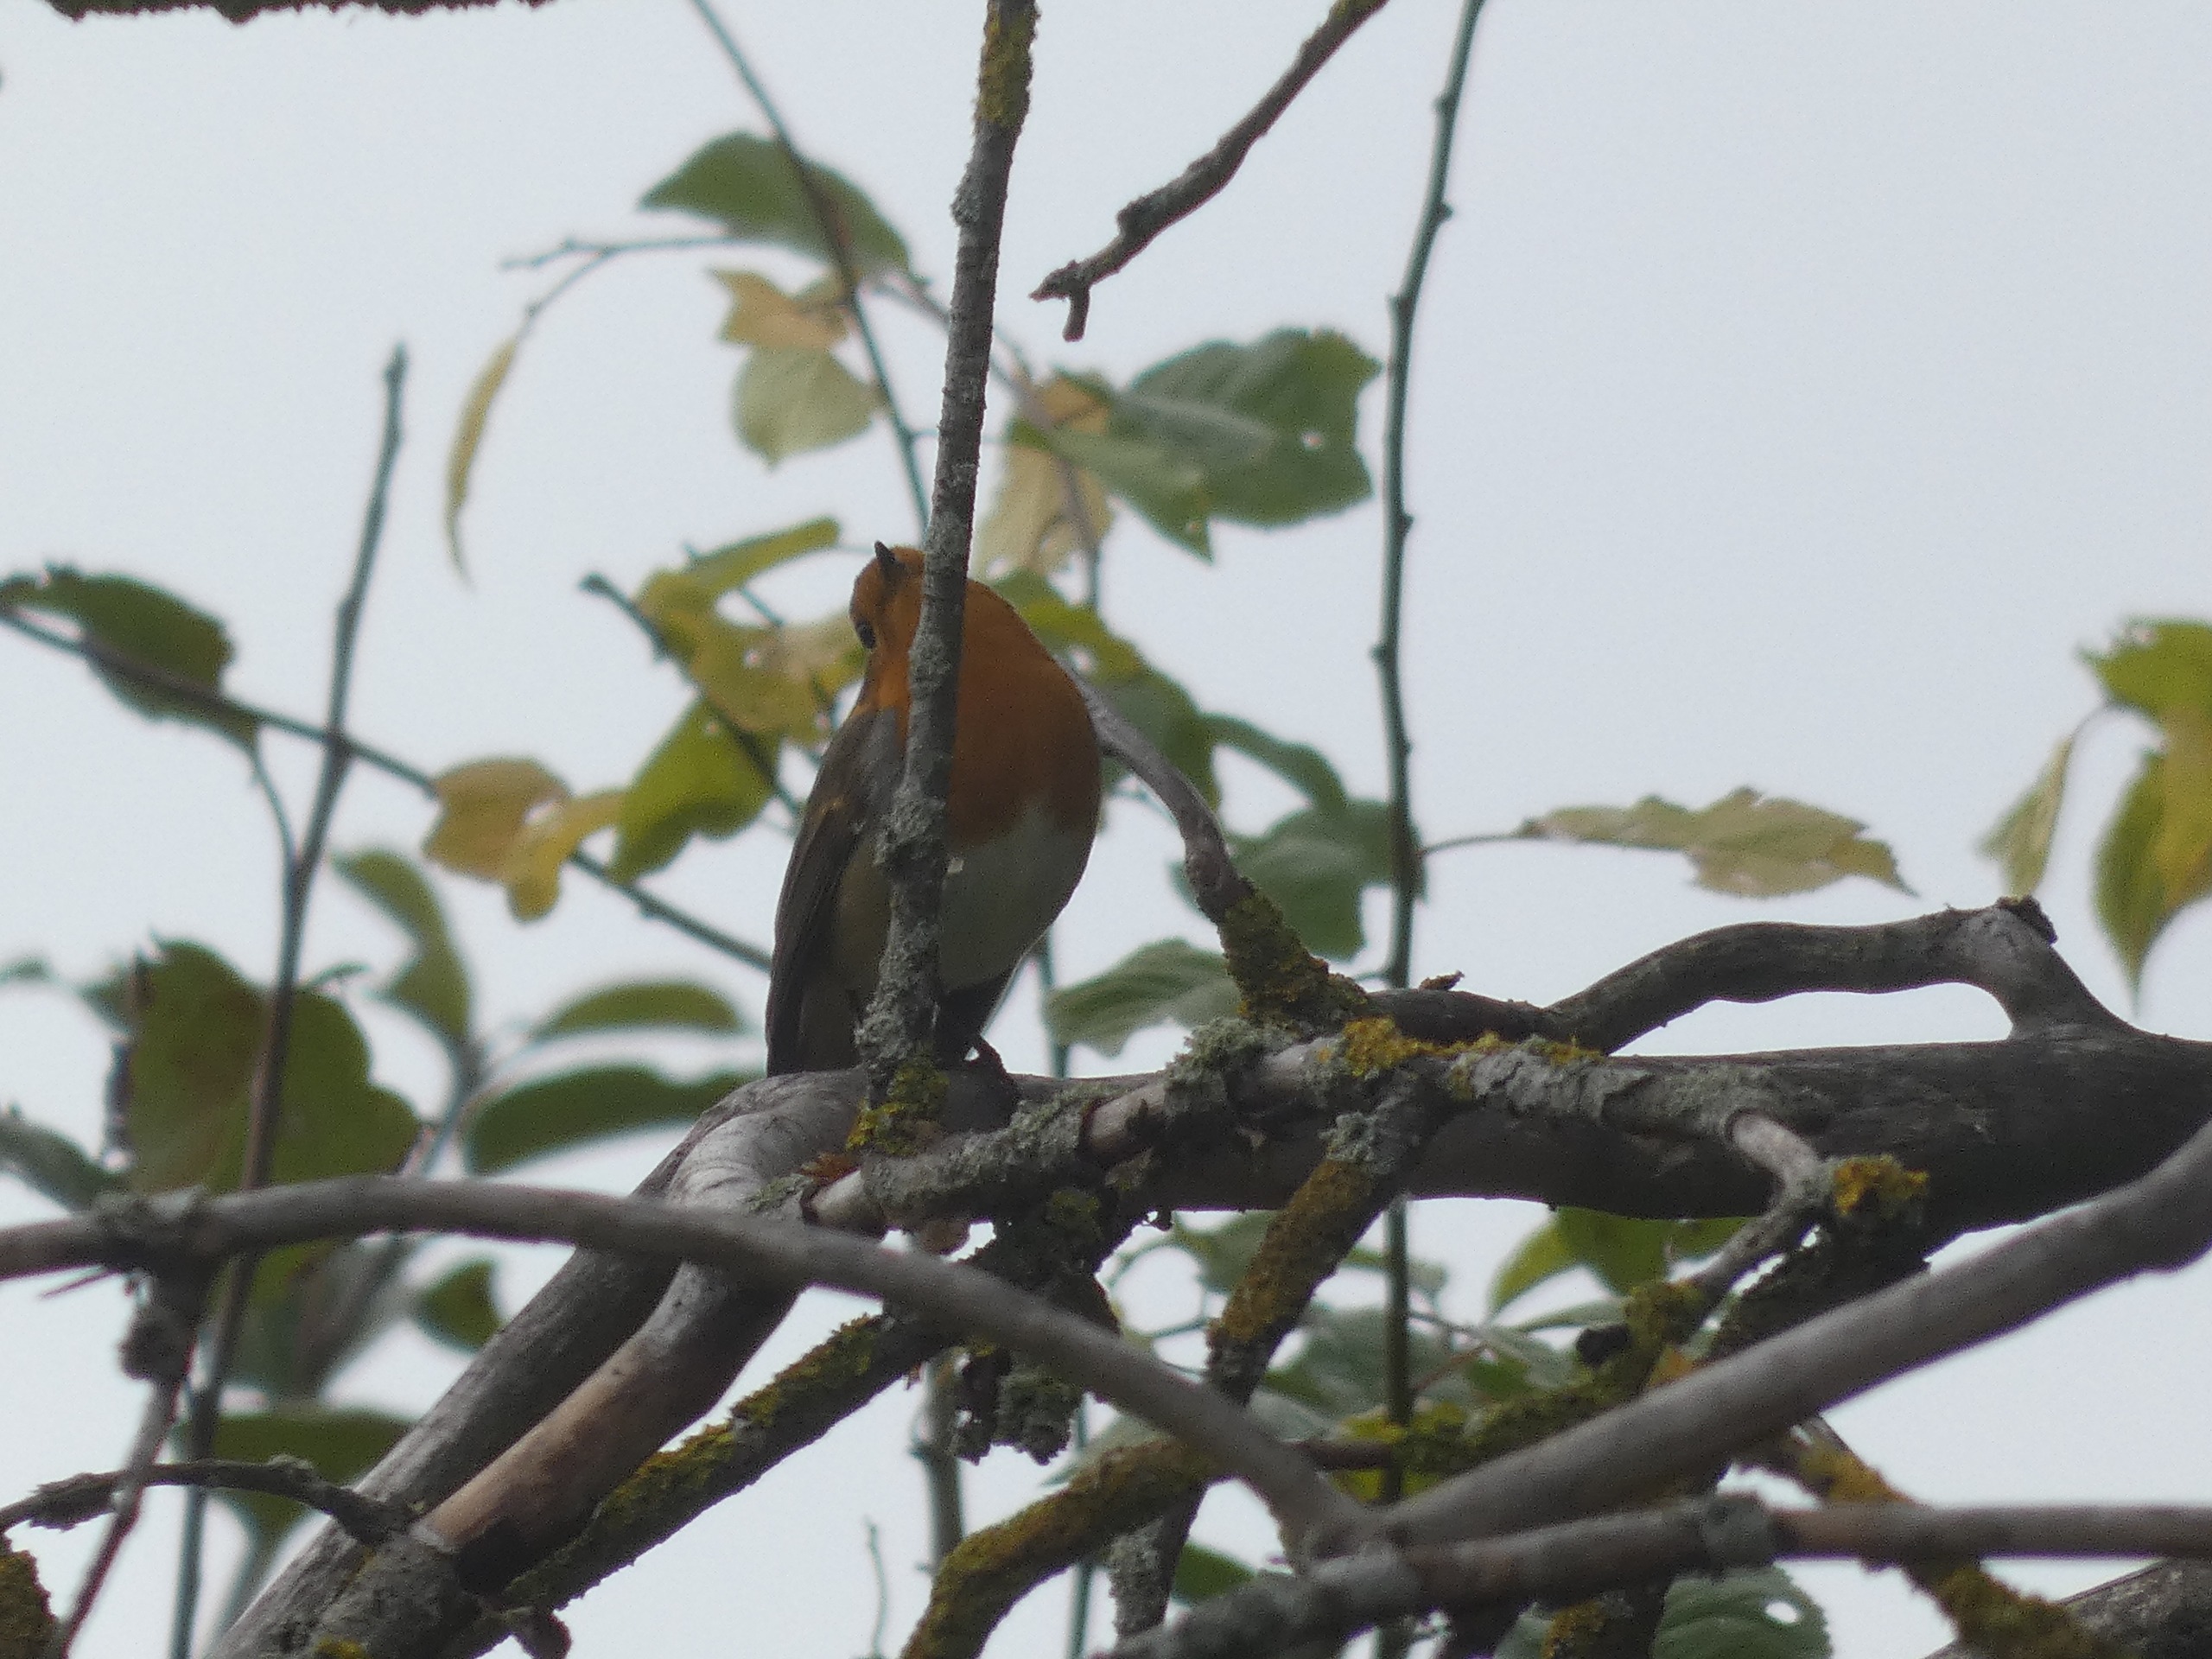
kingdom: Animalia
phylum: Chordata
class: Aves
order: Passeriformes
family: Muscicapidae
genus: Erithacus
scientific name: Erithacus rubecula
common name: Rødhals/rødkælk
